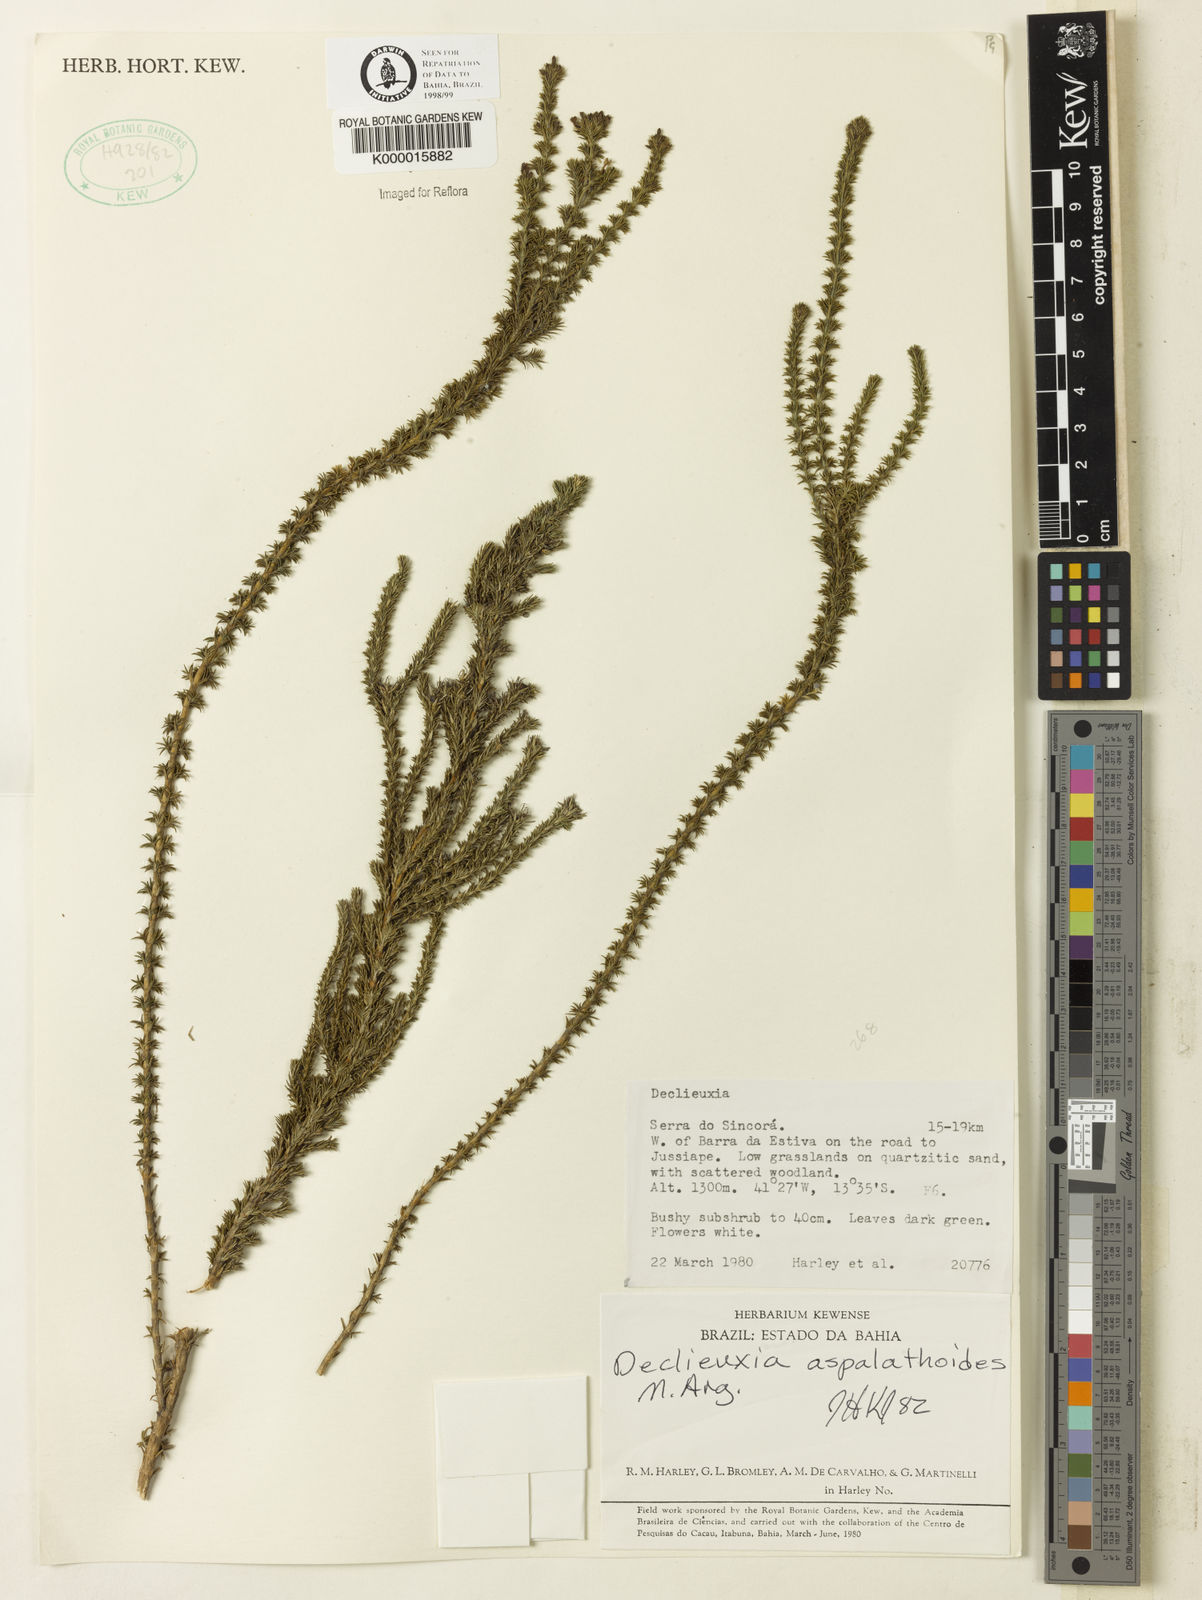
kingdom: Plantae
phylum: Tracheophyta
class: Magnoliopsida
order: Gentianales
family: Rubiaceae
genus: Declieuxia
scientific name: Declieuxia aspalathoides
